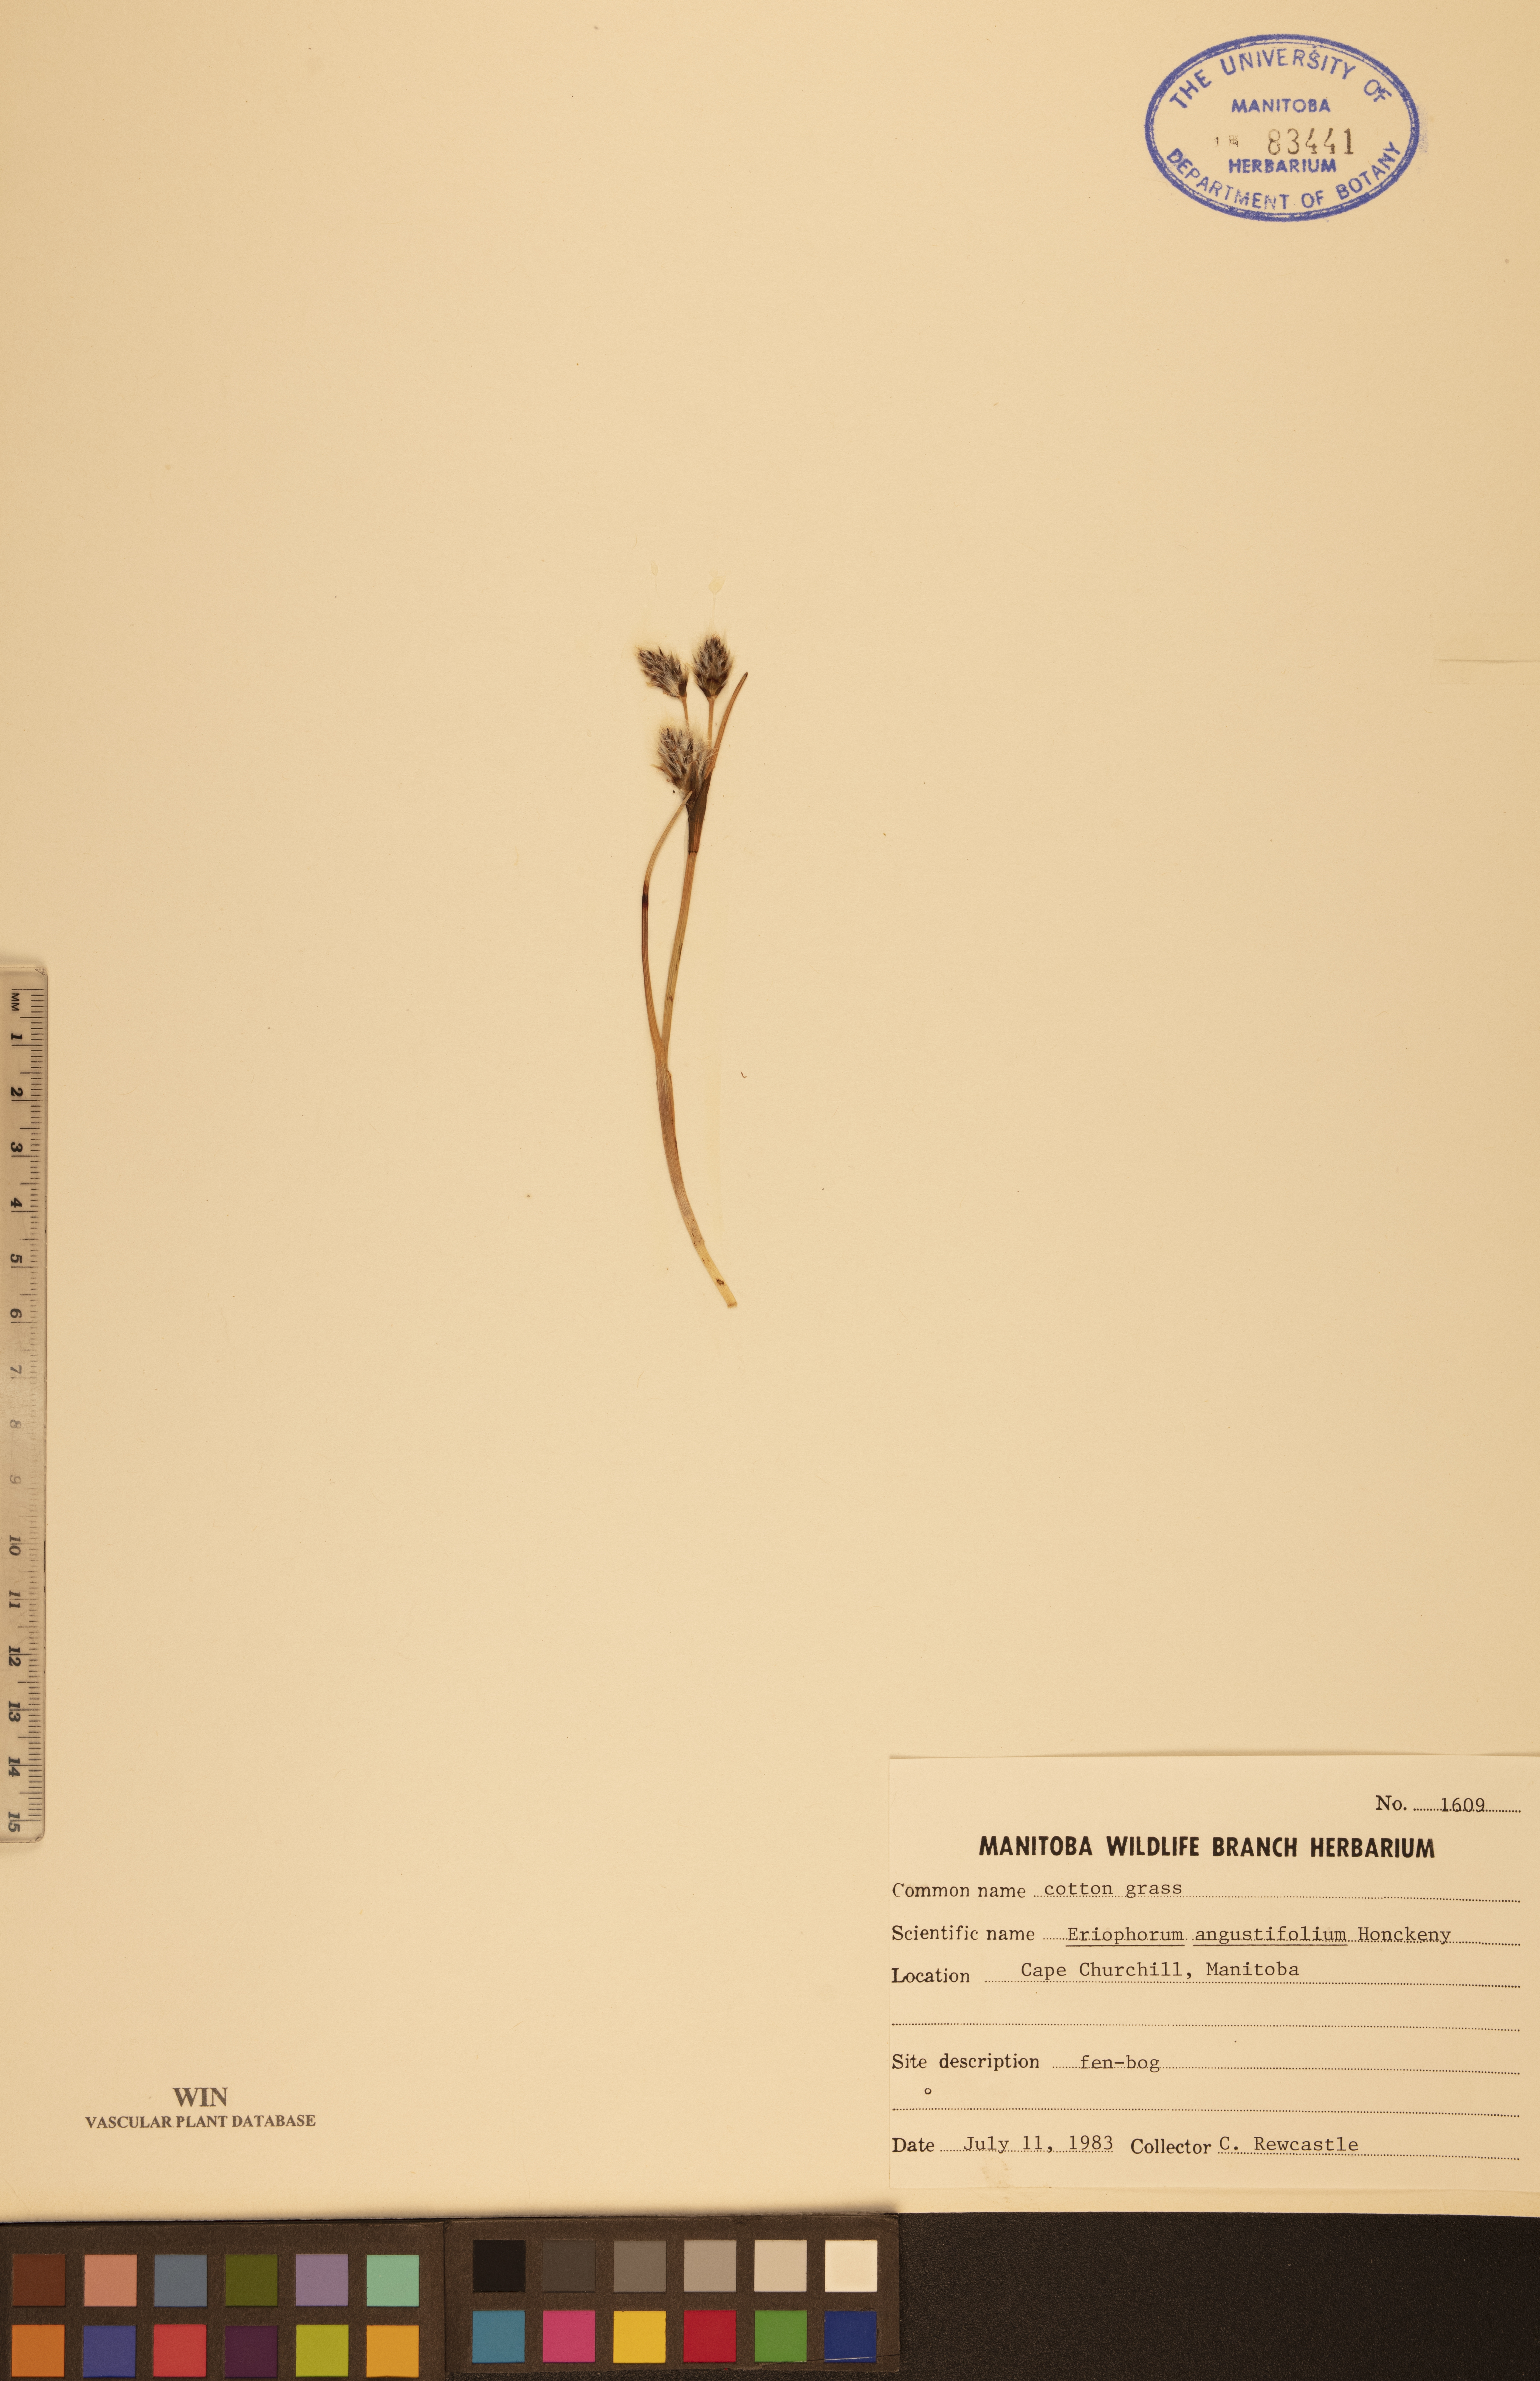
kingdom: Plantae
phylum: Tracheophyta
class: Liliopsida
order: Poales
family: Cyperaceae
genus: Eriophorum
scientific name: Eriophorum angustifolium
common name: Common cottongrass
